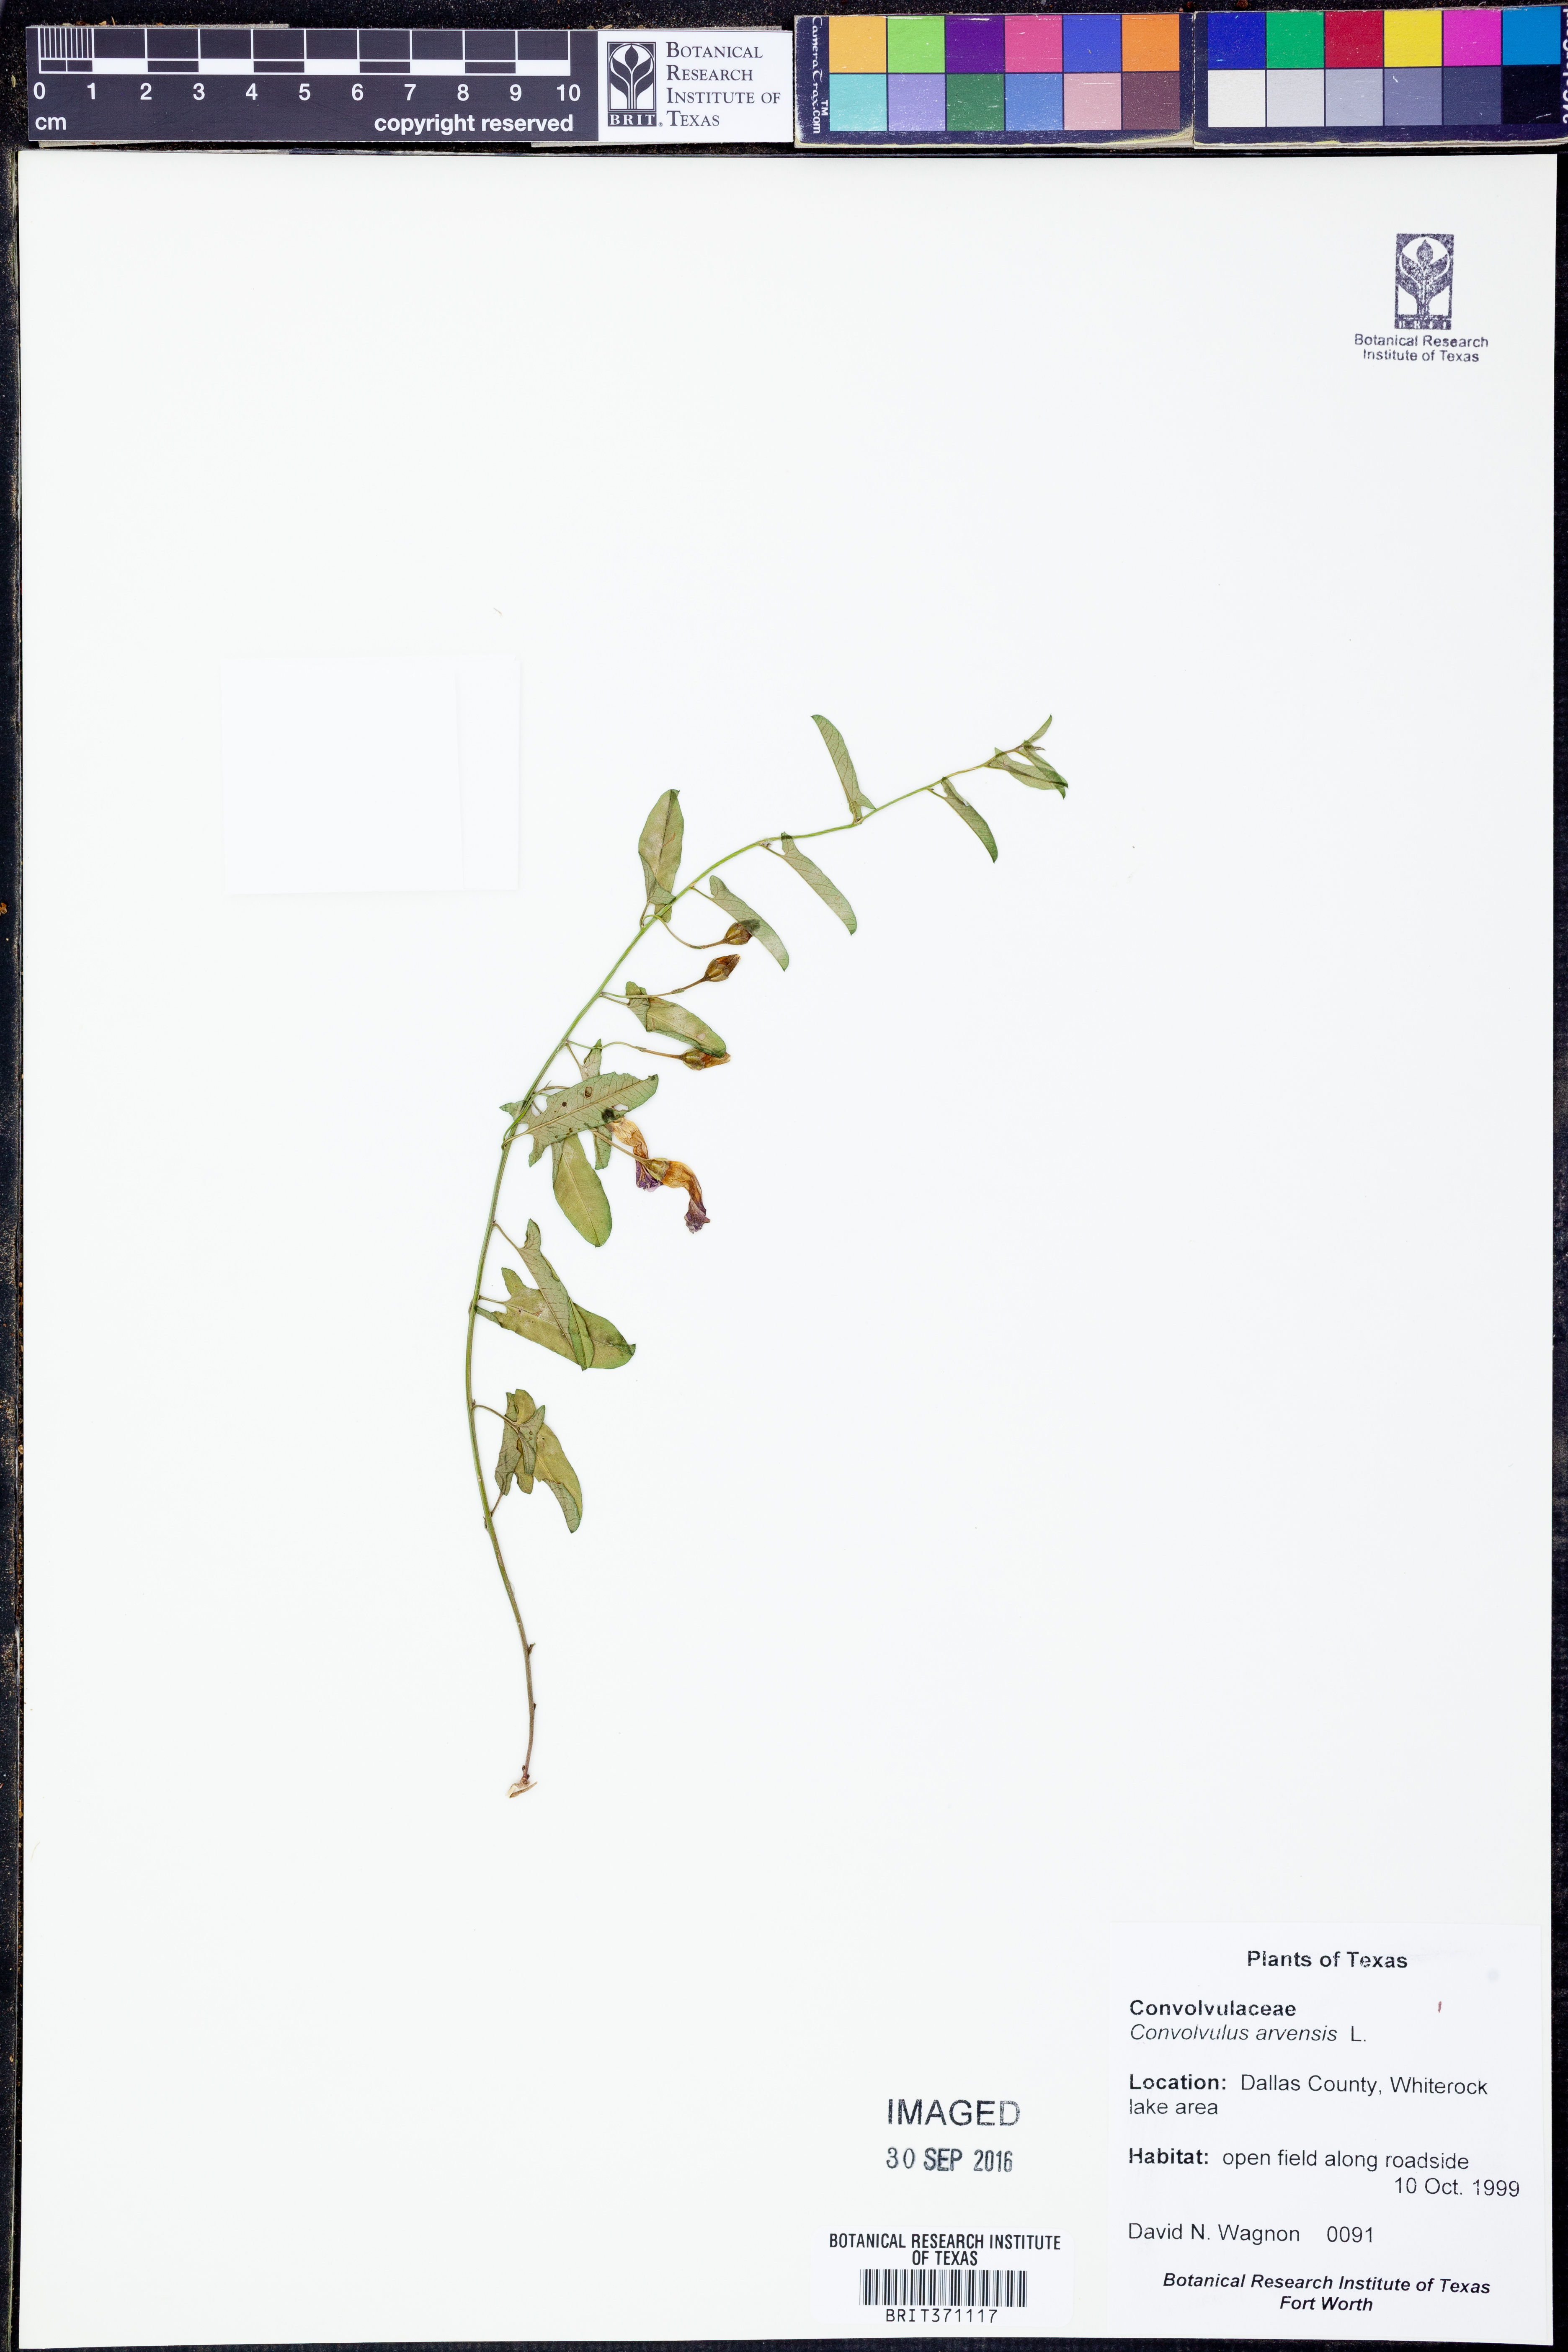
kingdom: Plantae
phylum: Tracheophyta
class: Magnoliopsida
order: Solanales
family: Convolvulaceae
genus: Convolvulus
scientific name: Convolvulus arvensis
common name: Field bindweed
